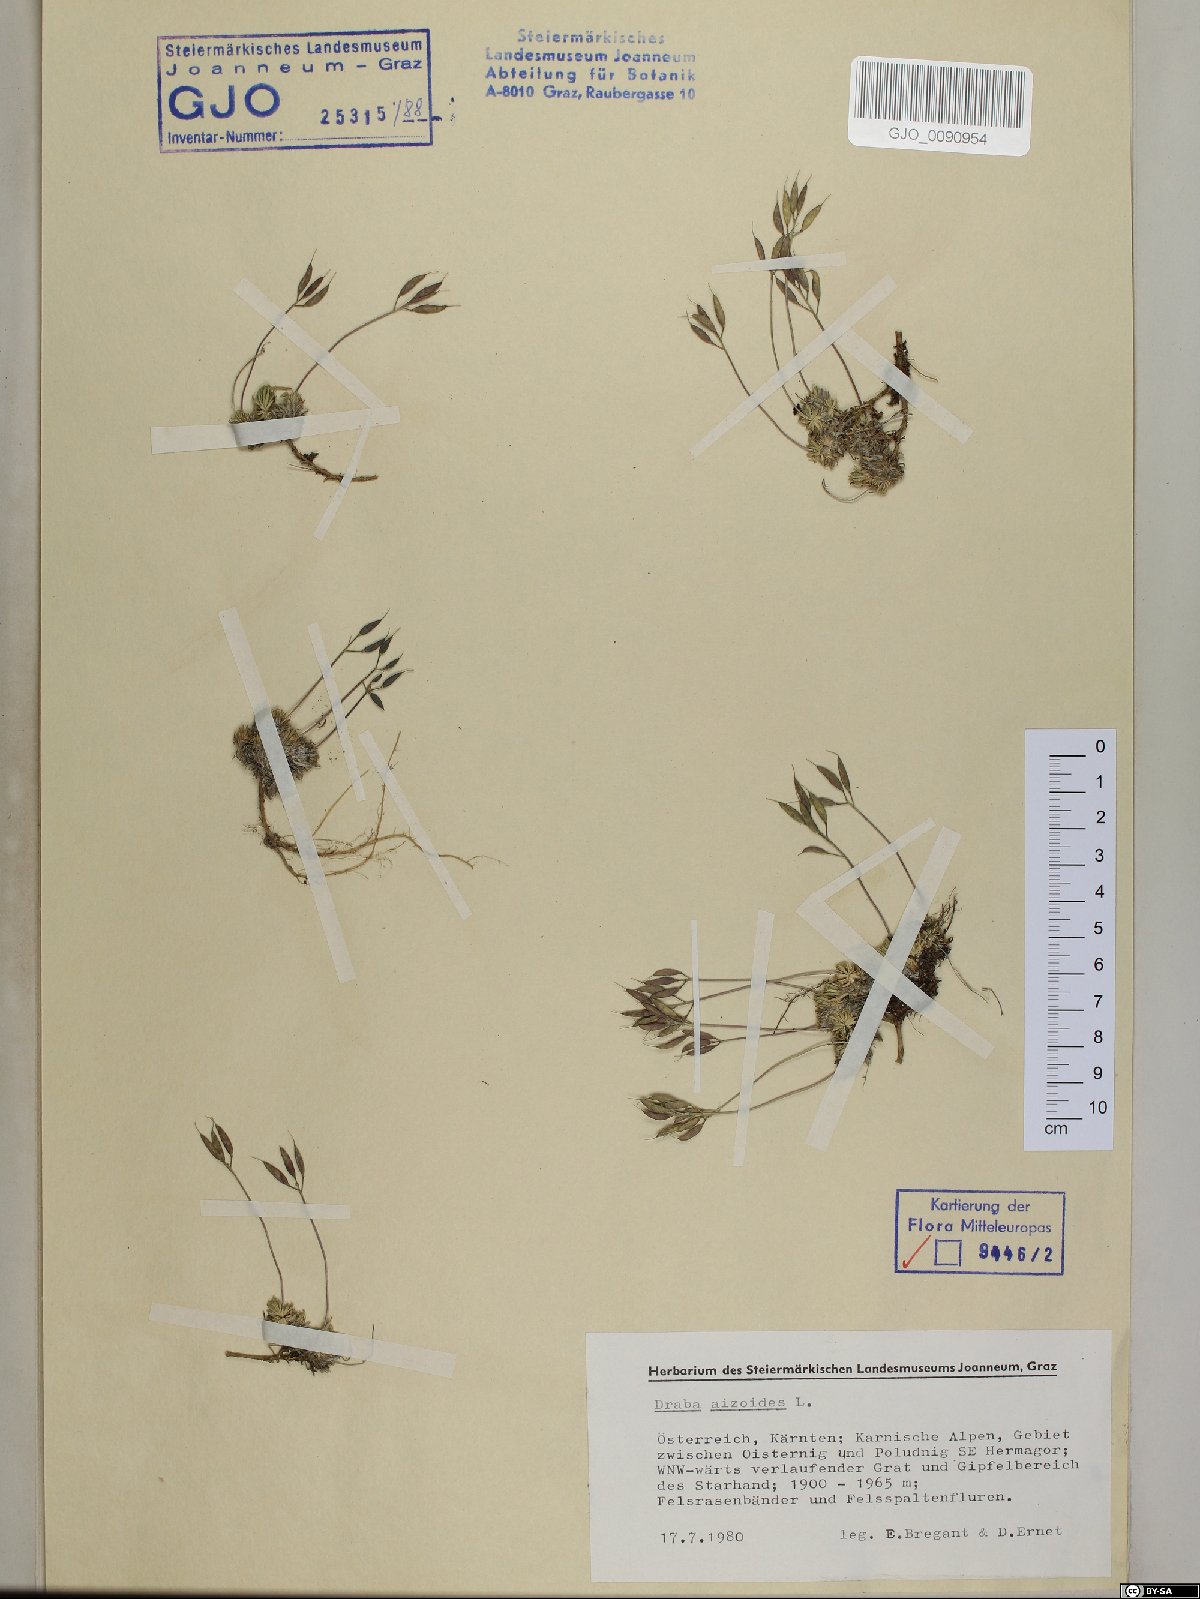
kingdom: Plantae
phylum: Tracheophyta
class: Magnoliopsida
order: Brassicales
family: Brassicaceae
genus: Draba
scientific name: Draba aizoides
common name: Yellow whitlowgrass
